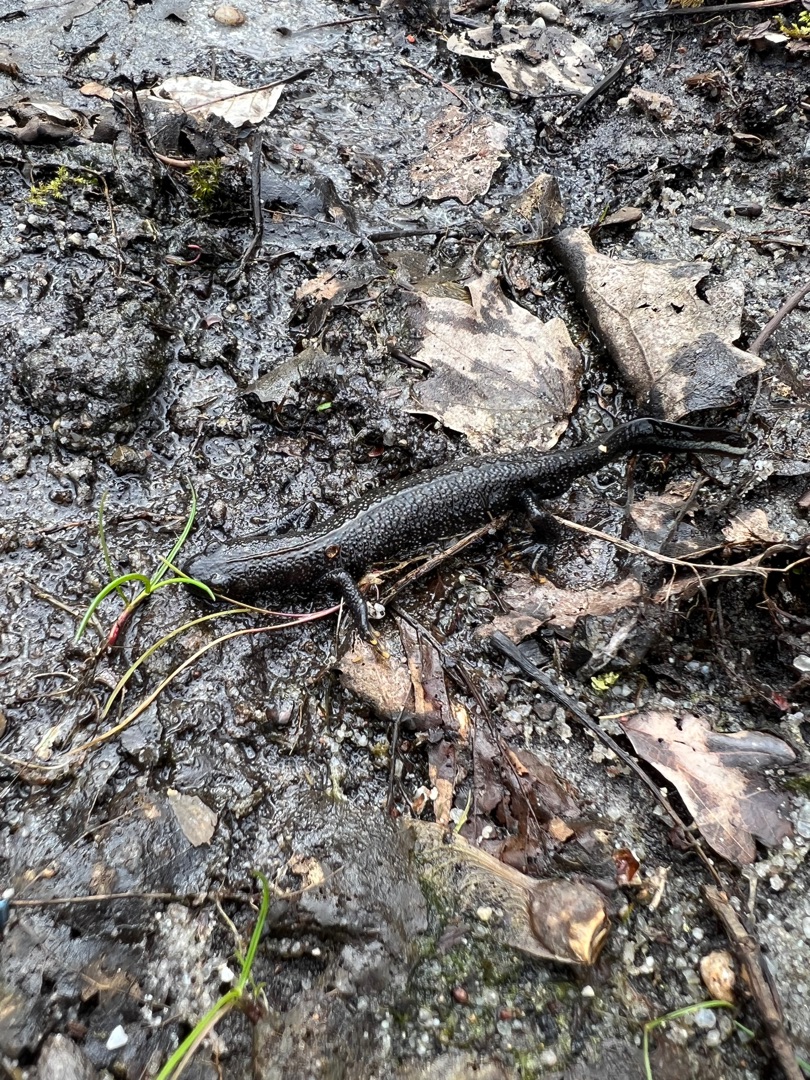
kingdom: Animalia
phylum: Chordata
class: Amphibia
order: Caudata
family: Salamandridae
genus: Triturus
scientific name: Triturus cristatus
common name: Stor vandsalamander
